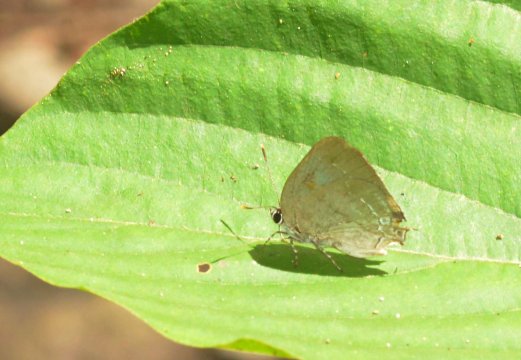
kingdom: Animalia
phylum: Arthropoda
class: Insecta
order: Lepidoptera
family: Lycaenidae
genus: Thecla
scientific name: Thecla ambrax
